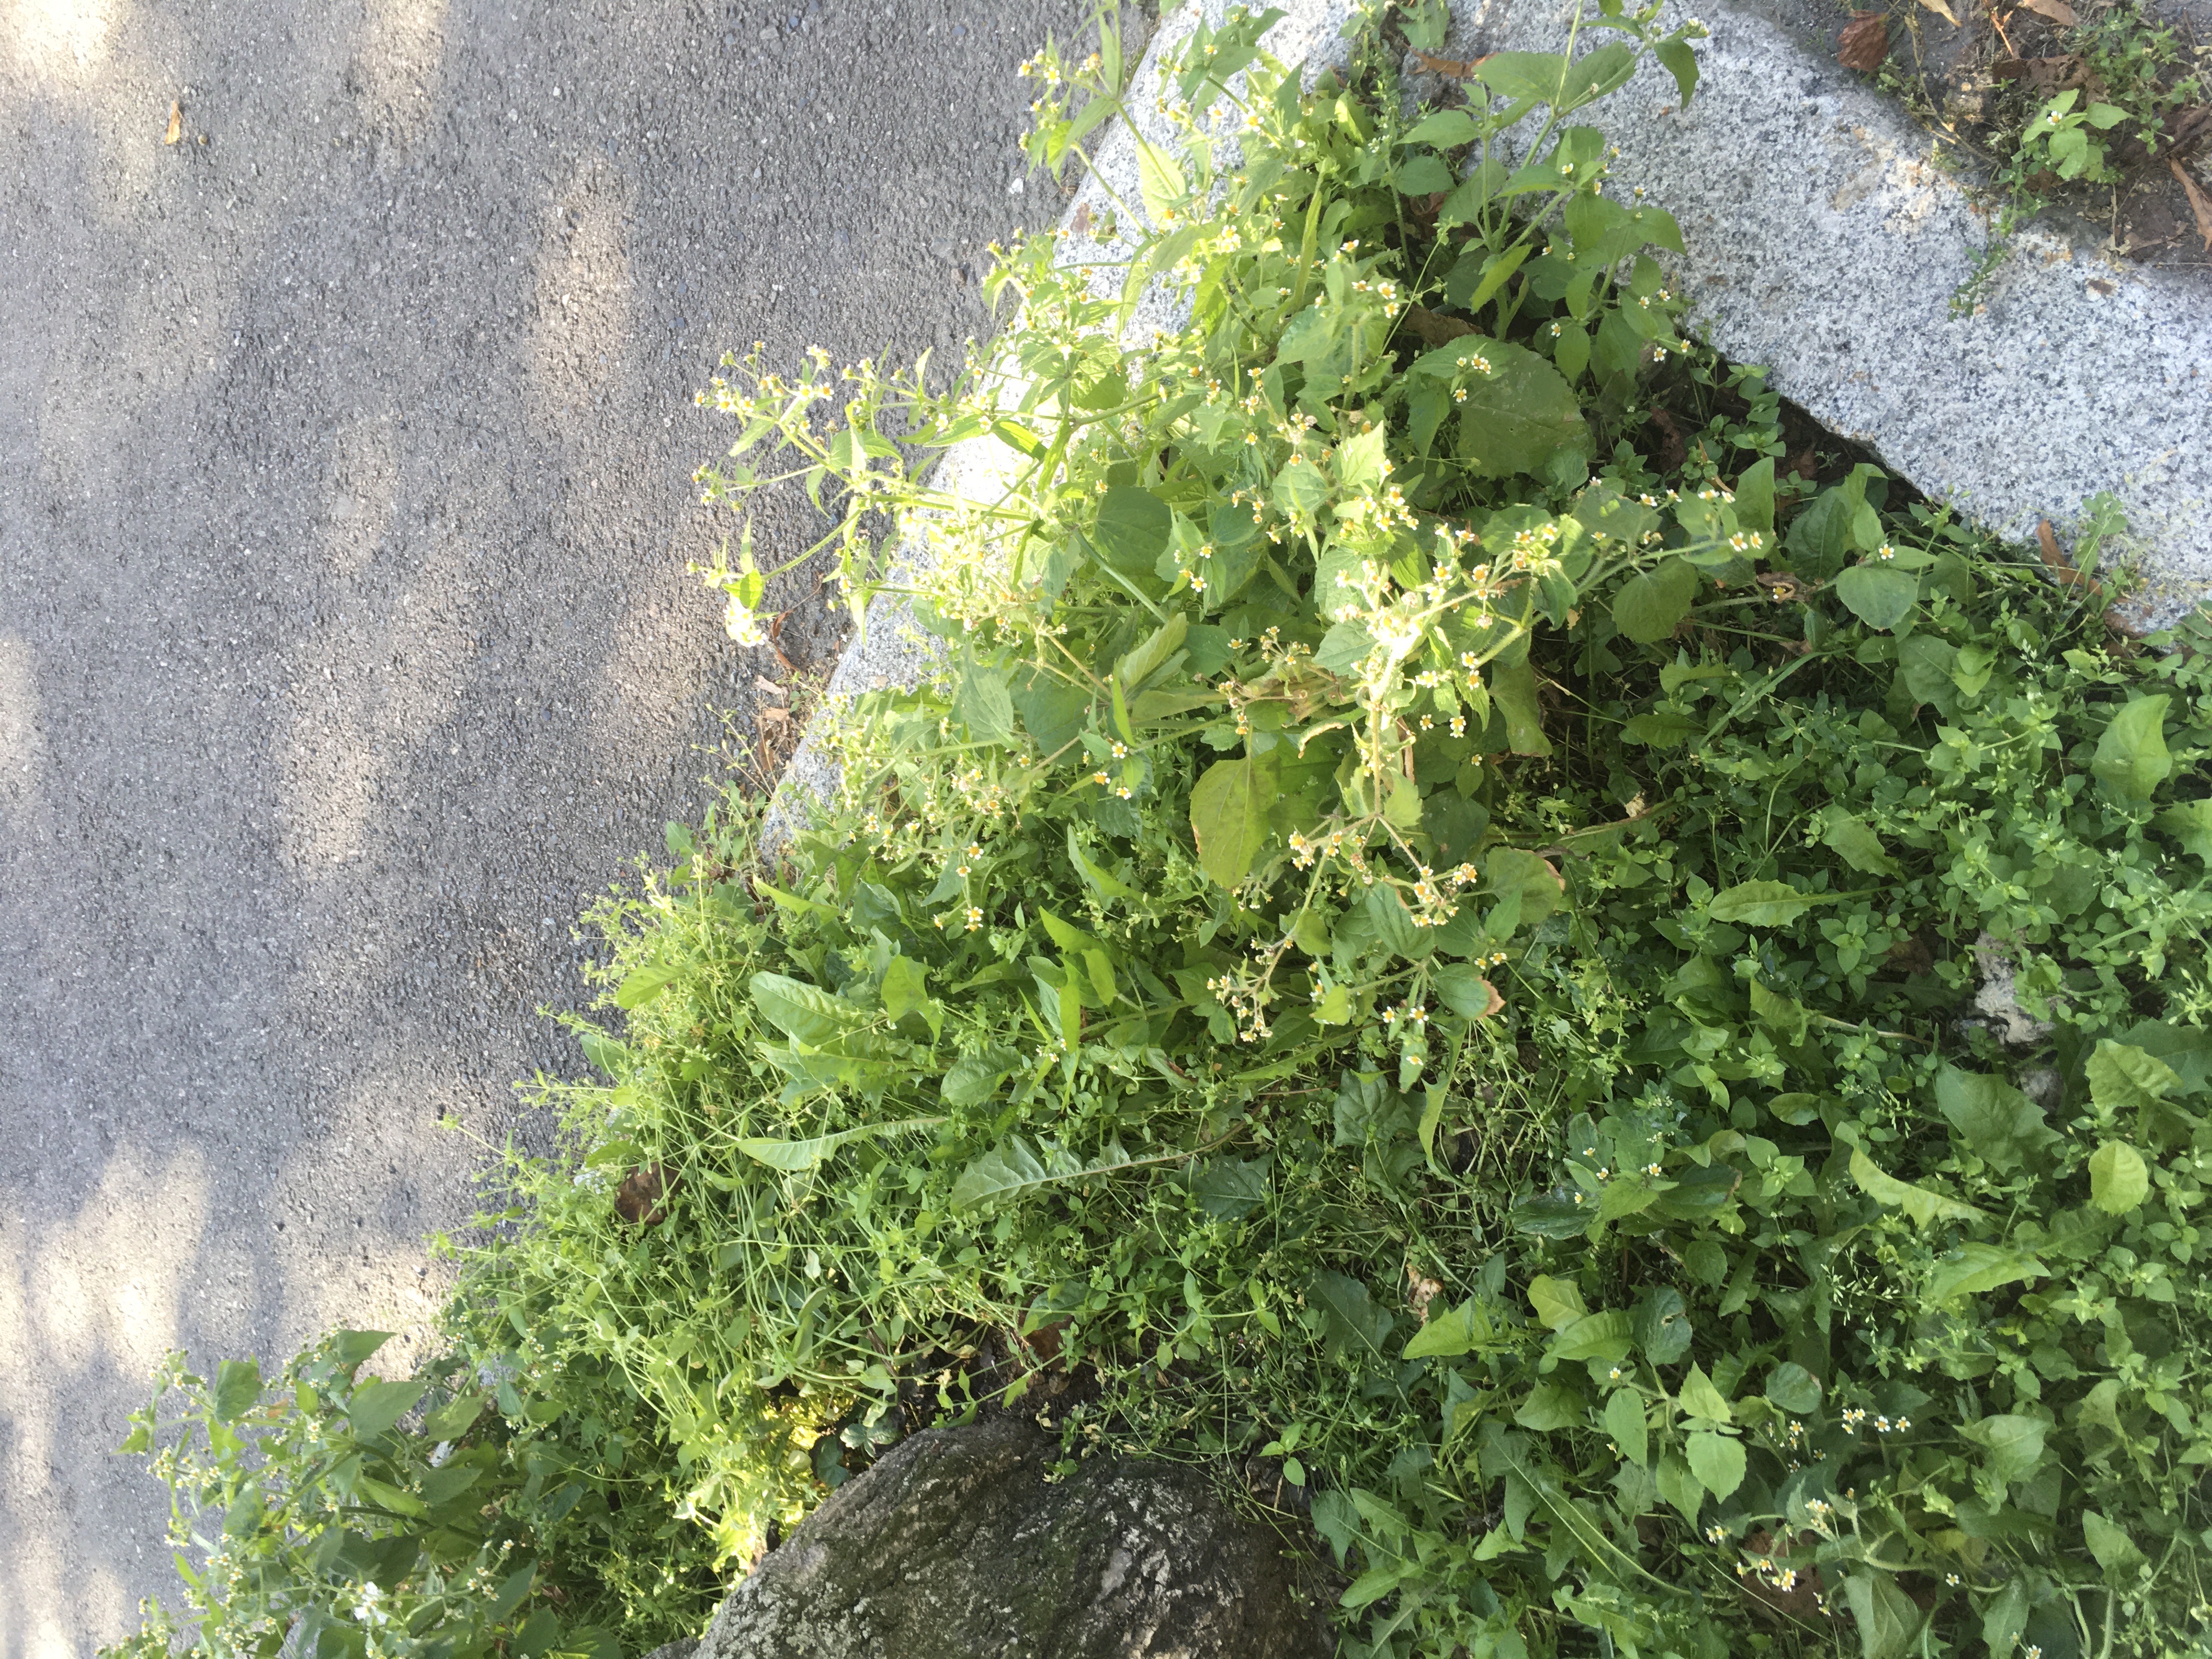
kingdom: Plantae
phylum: Tracheophyta
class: Magnoliopsida
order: Asterales
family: Asteraceae
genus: Galinsoga
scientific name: Galinsoga quadriradiata
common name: nesleskjellfrø
